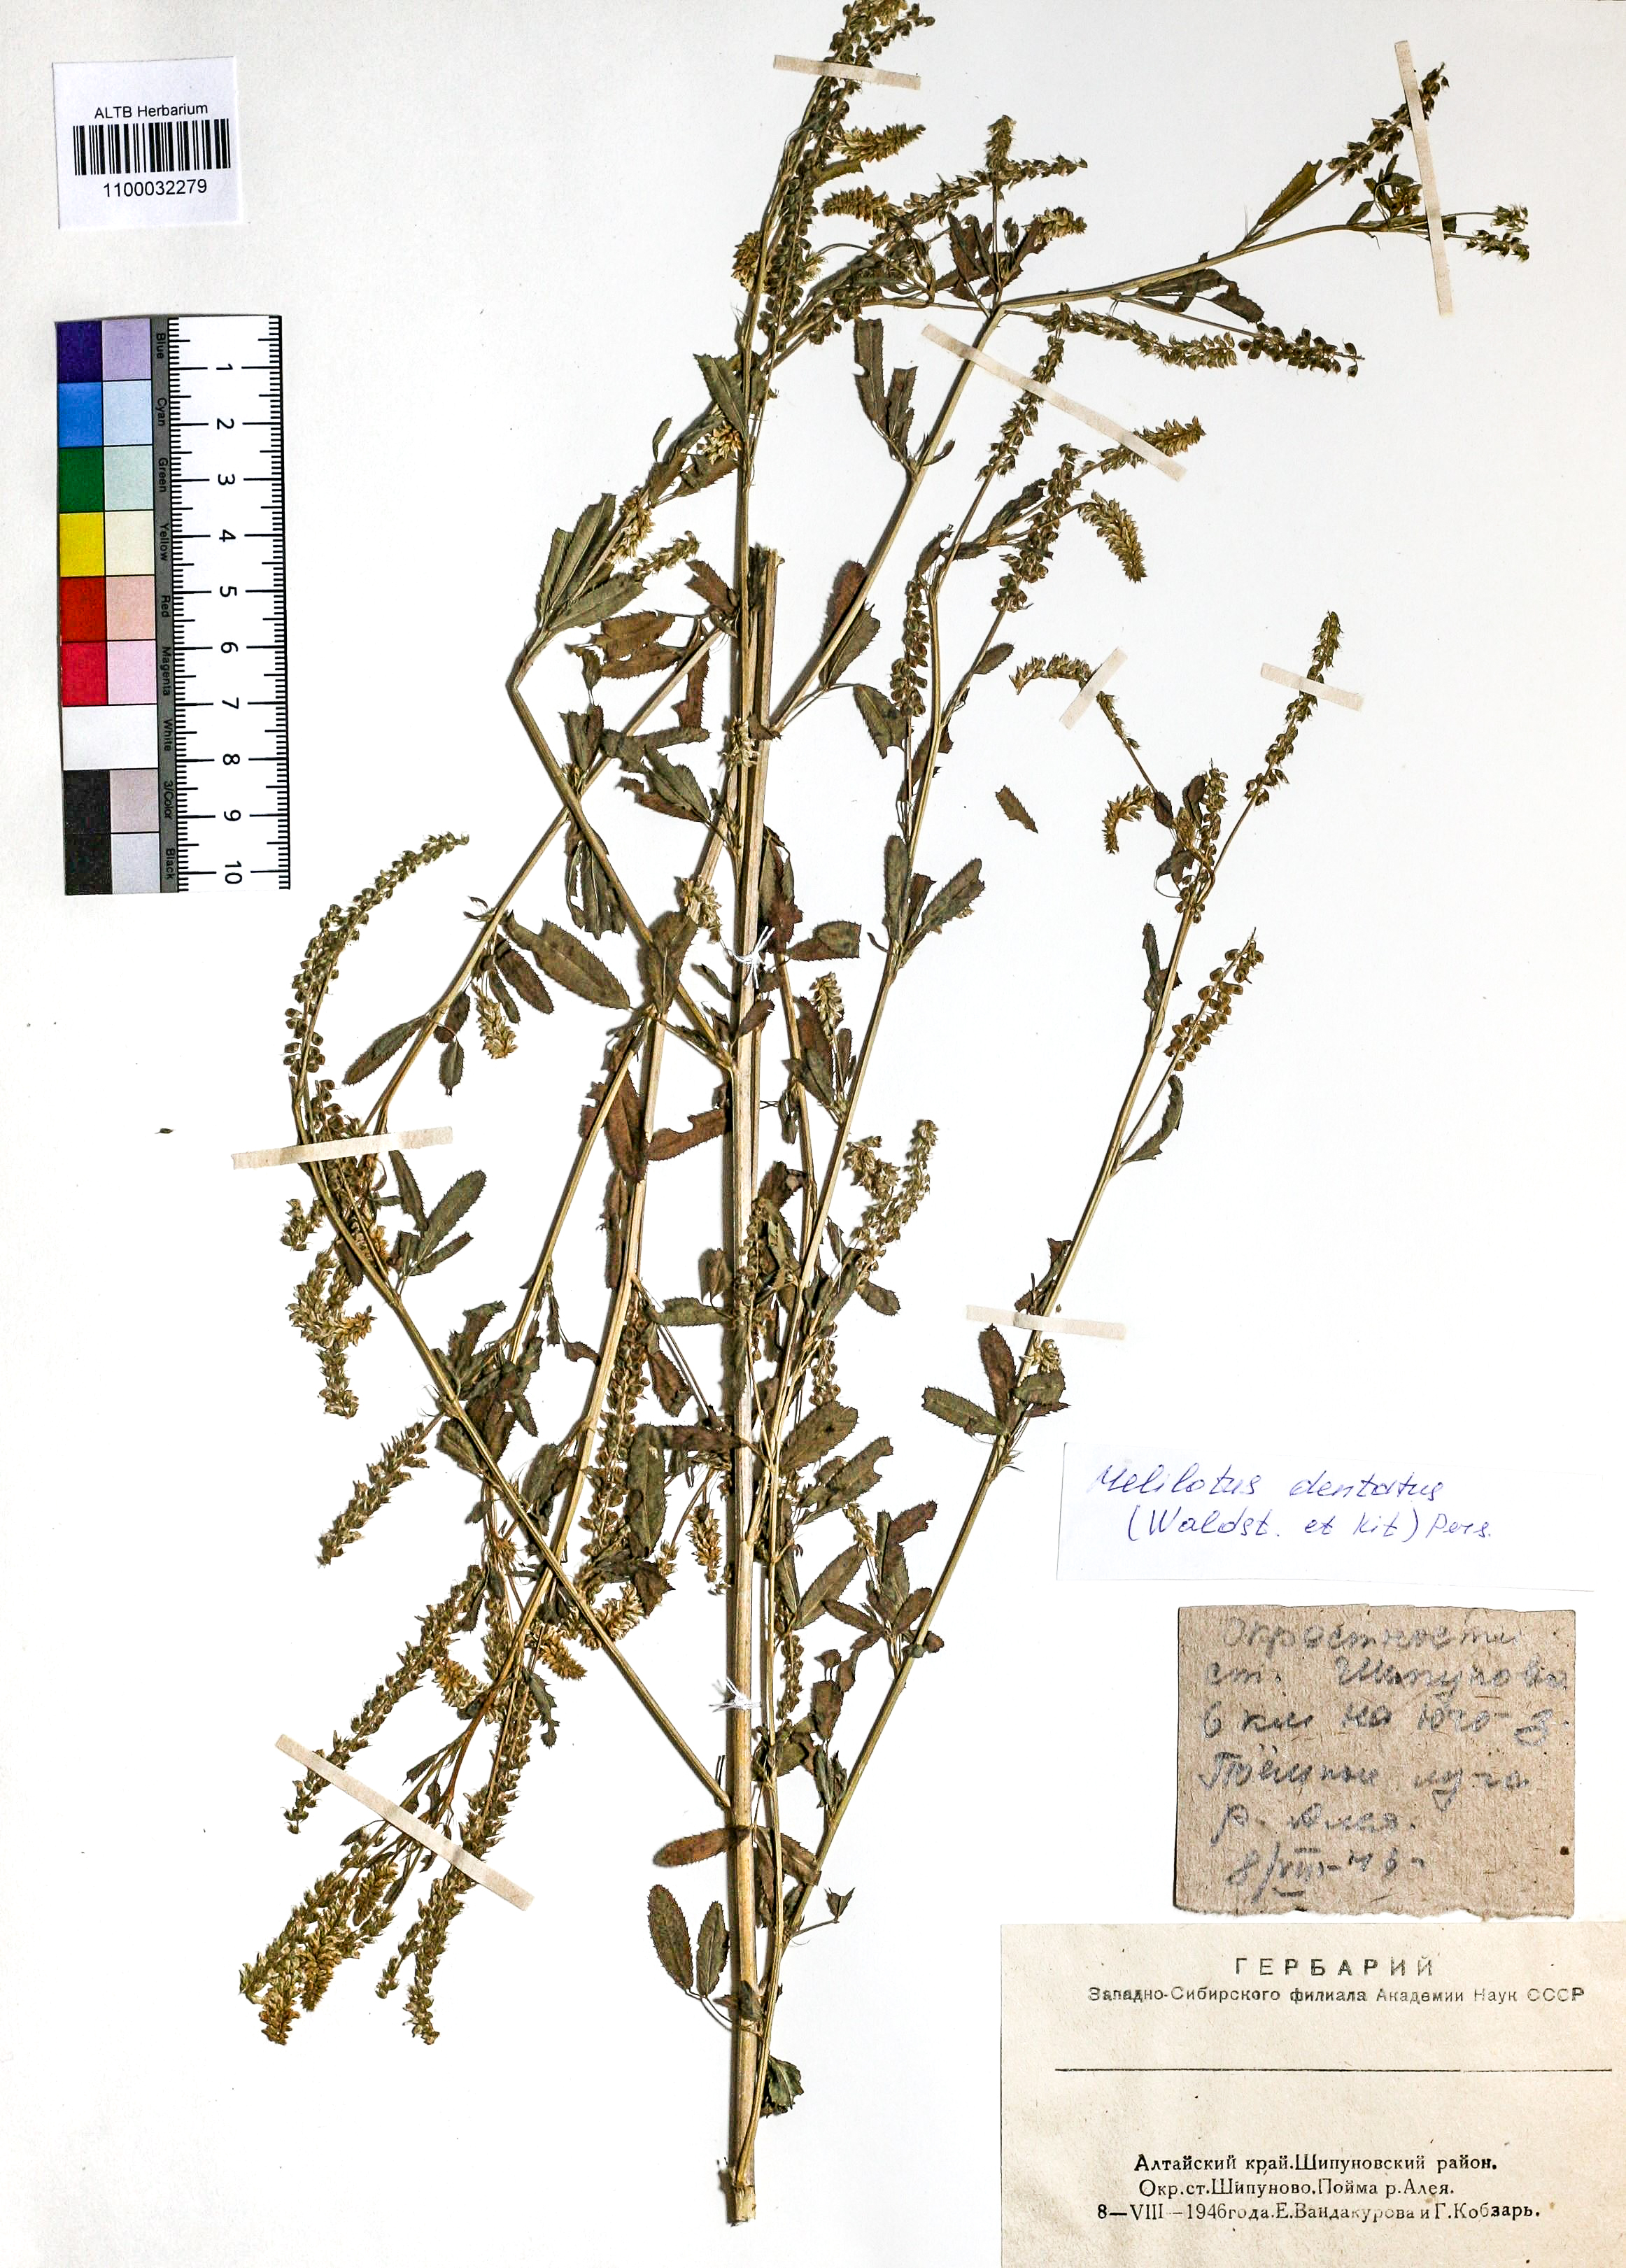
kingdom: Plantae
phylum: Tracheophyta
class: Magnoliopsida
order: Fabales
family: Fabaceae
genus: Melilotus
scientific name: Melilotus dentatus
